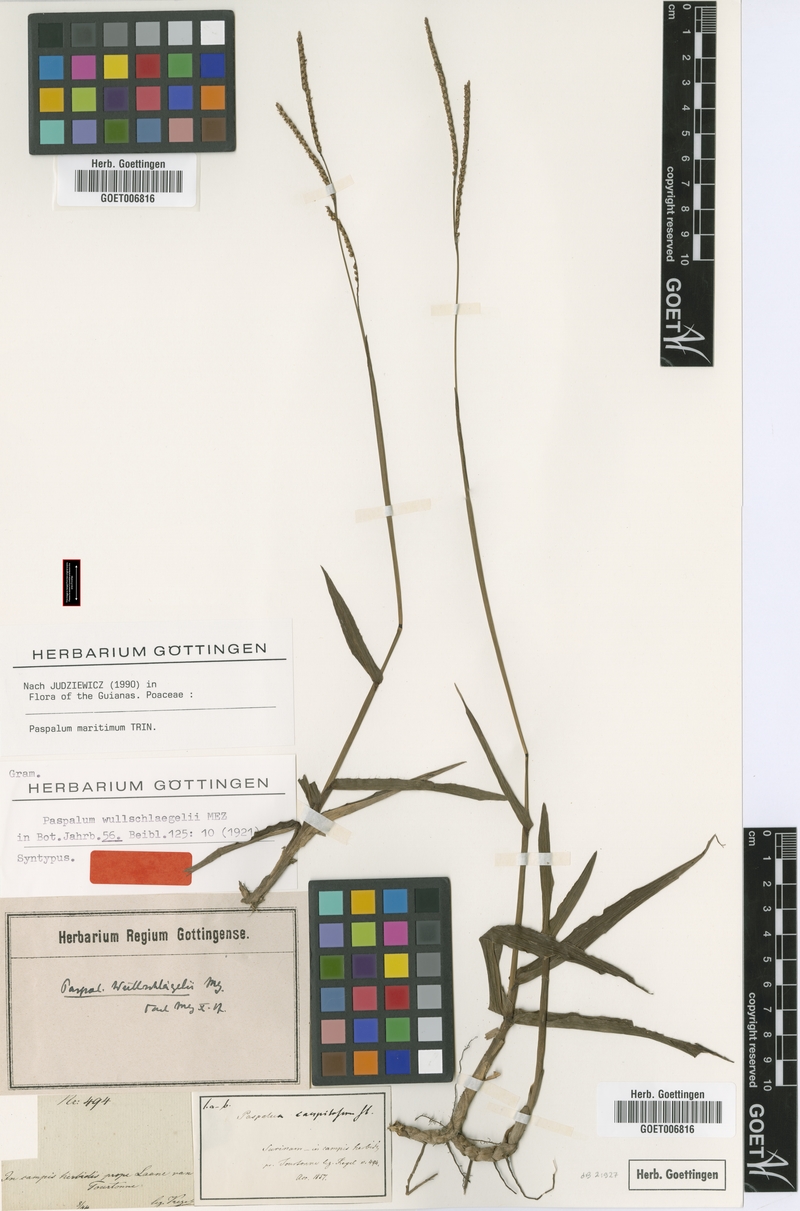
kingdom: Plantae
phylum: Tracheophyta
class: Liliopsida
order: Poales
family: Poaceae
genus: Paspalum
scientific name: Paspalum maritimum
